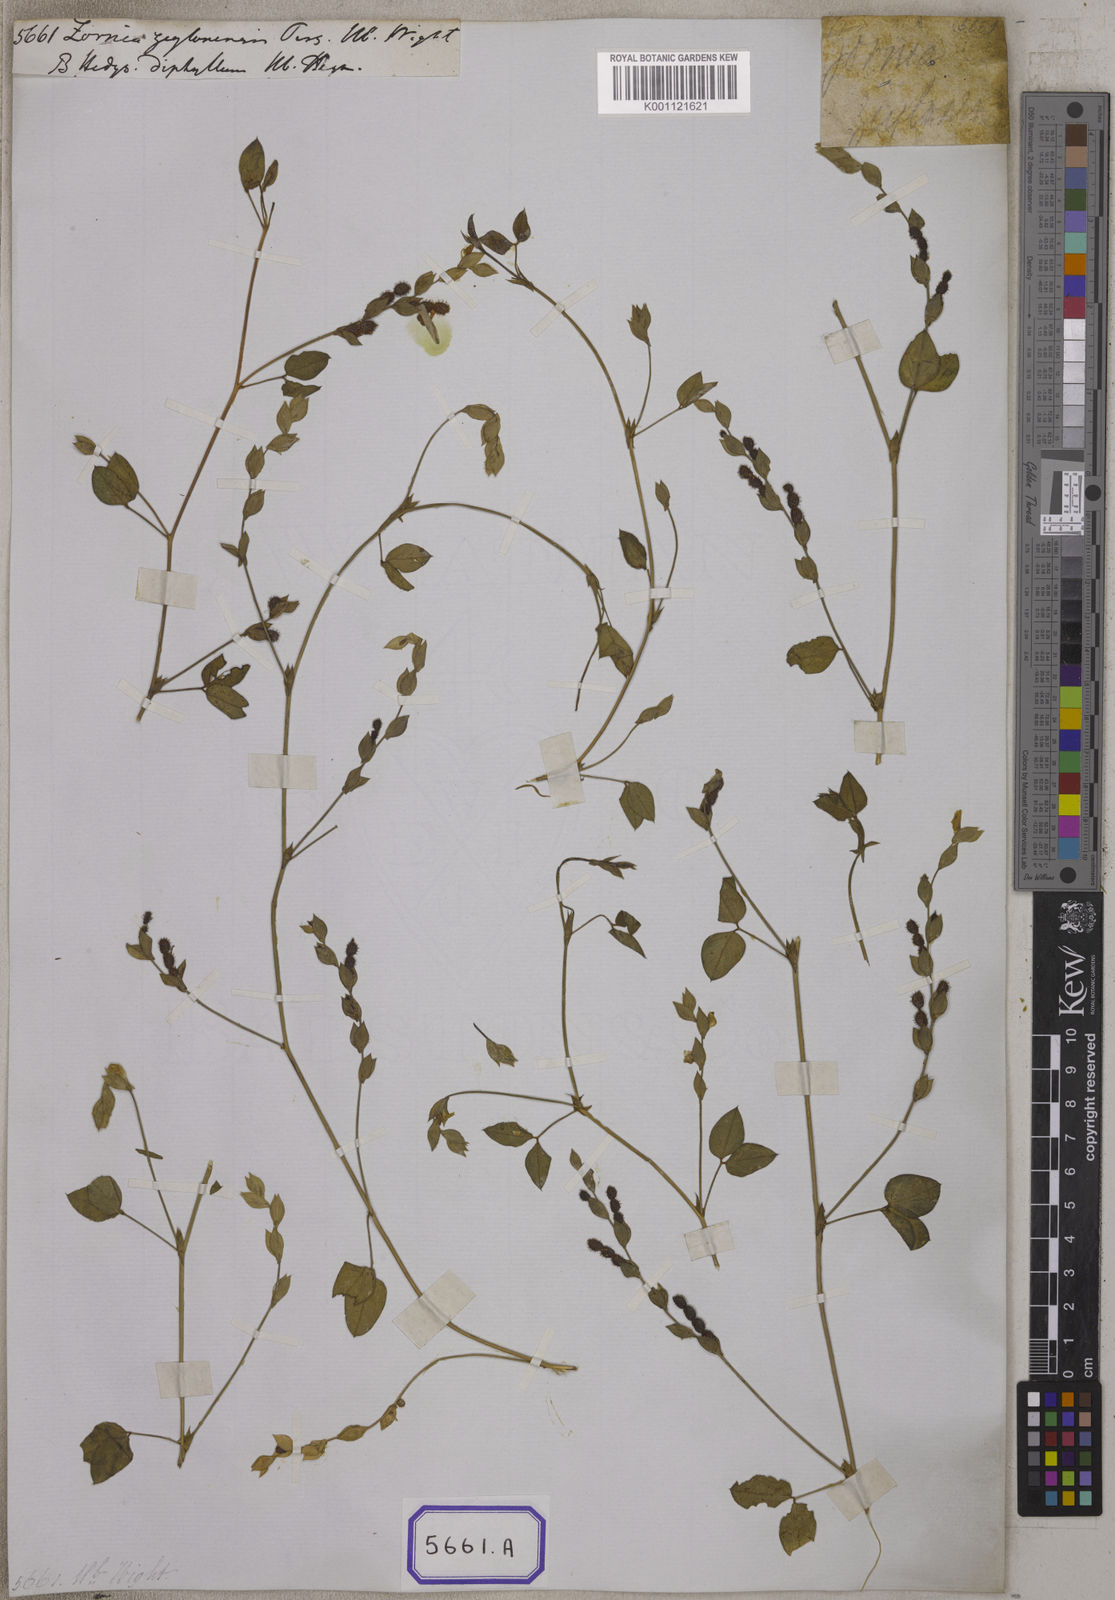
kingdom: Plantae
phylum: Tracheophyta
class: Magnoliopsida
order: Fabales
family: Fabaceae
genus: Zornia
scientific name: Zornia diphylla
